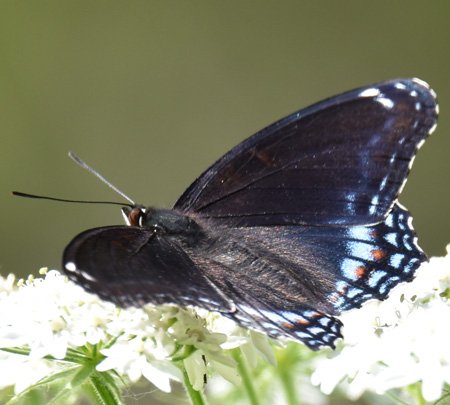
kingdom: Animalia
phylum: Arthropoda
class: Insecta
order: Lepidoptera
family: Nymphalidae
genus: Limenitis
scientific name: Limenitis astyanax
